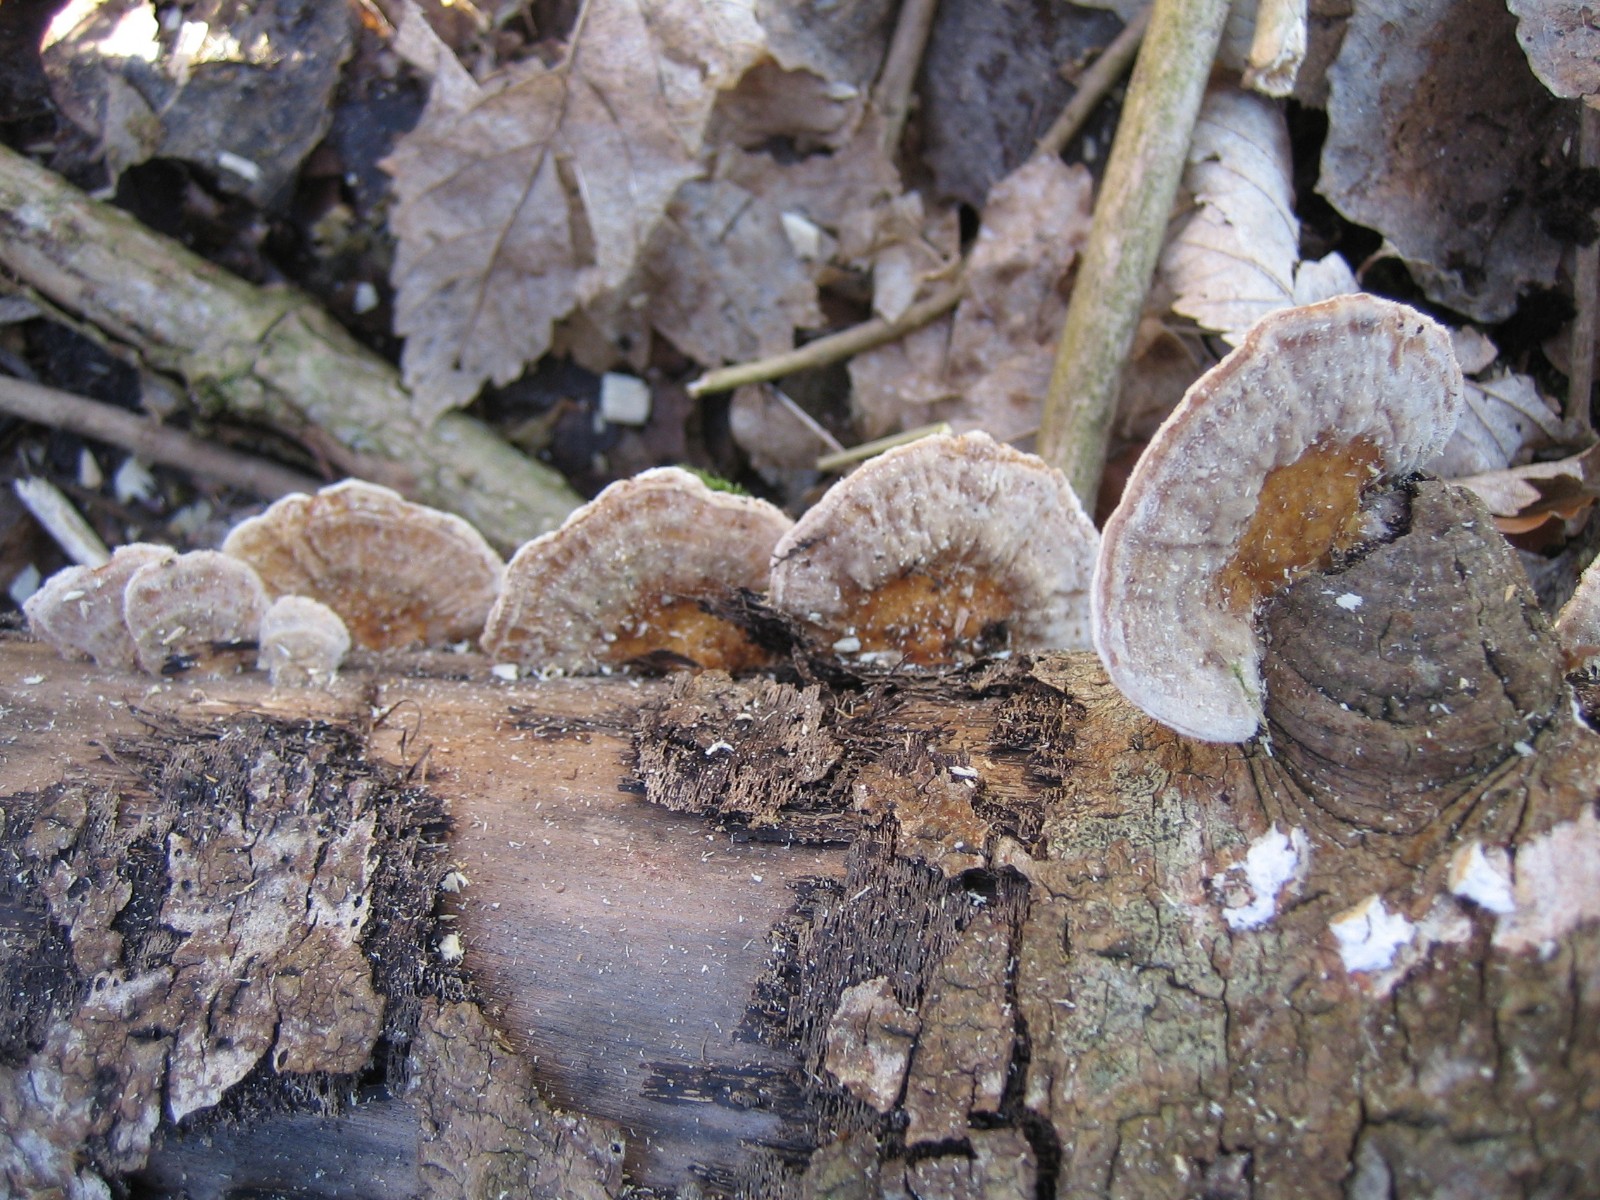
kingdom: Fungi
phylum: Basidiomycota
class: Agaricomycetes
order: Polyporales
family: Polyporaceae
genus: Trametes
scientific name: Trametes ochracea
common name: bæltet læderporesvamp
